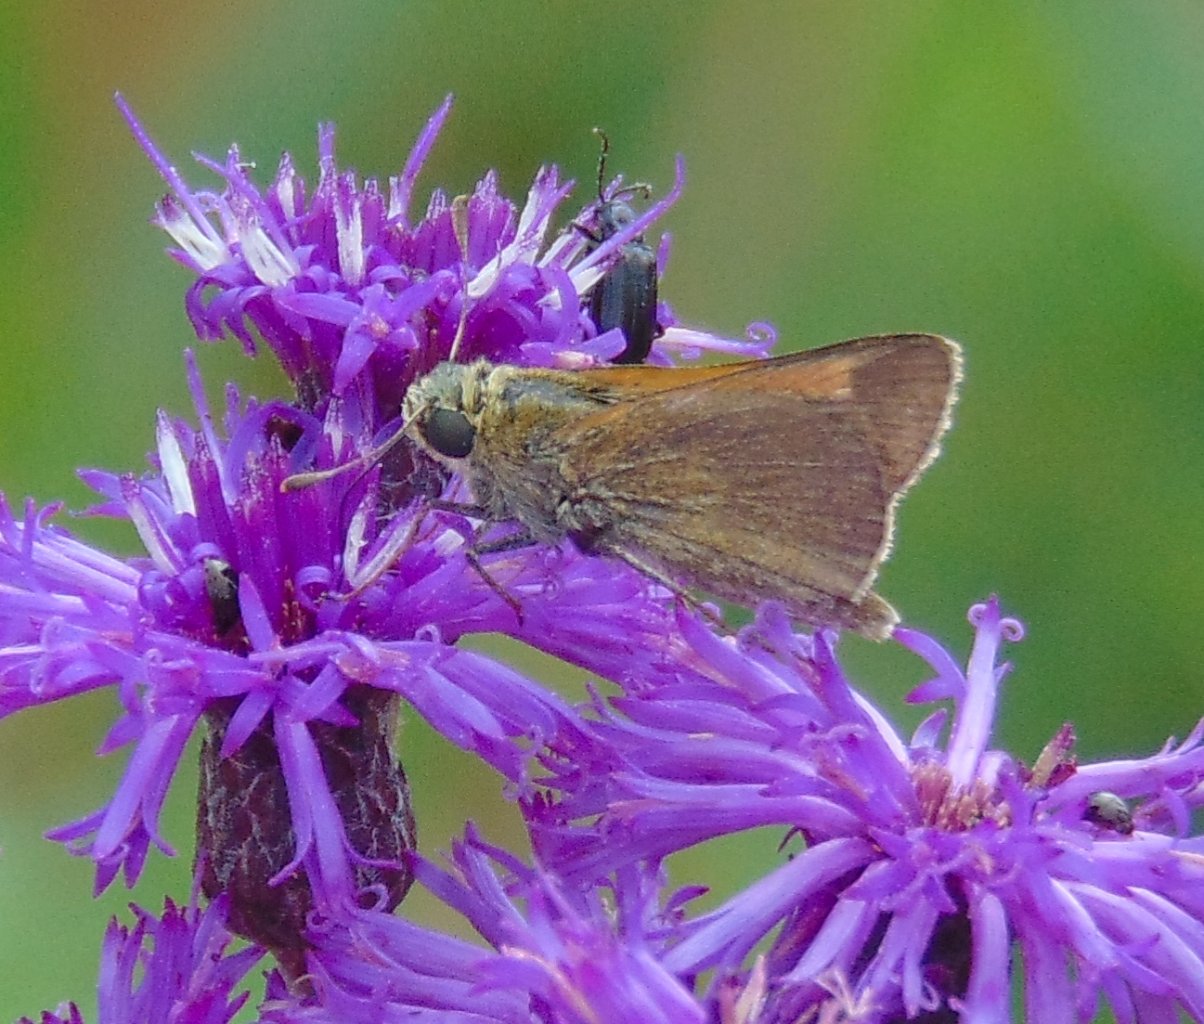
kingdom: Animalia
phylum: Arthropoda
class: Insecta
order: Lepidoptera
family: Hesperiidae
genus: Polites
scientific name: Polites themistocles
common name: Tawny-edged Skipper
